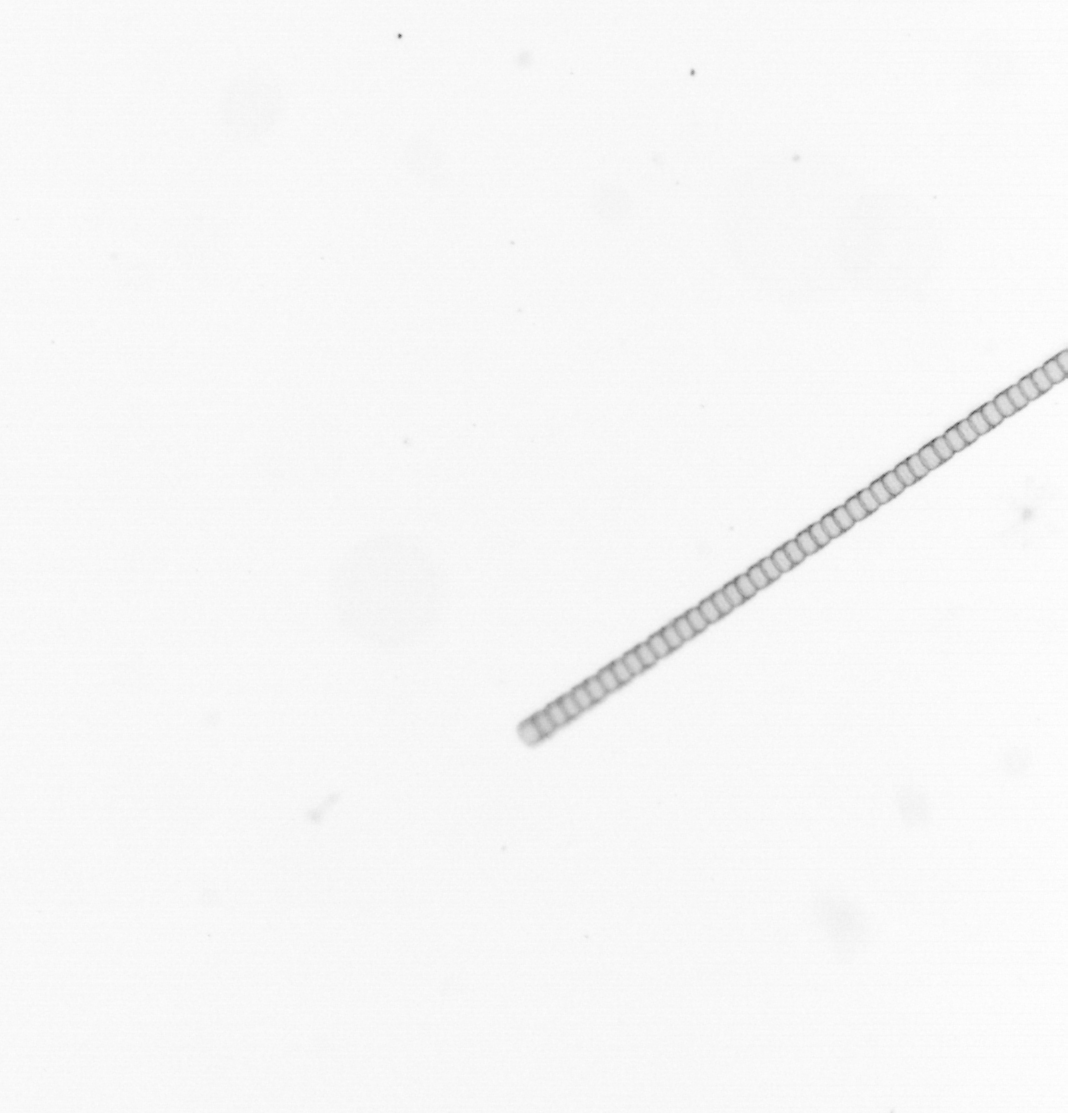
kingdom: Chromista
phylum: Ochrophyta
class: Bacillariophyceae
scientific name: Bacillariophyceae
